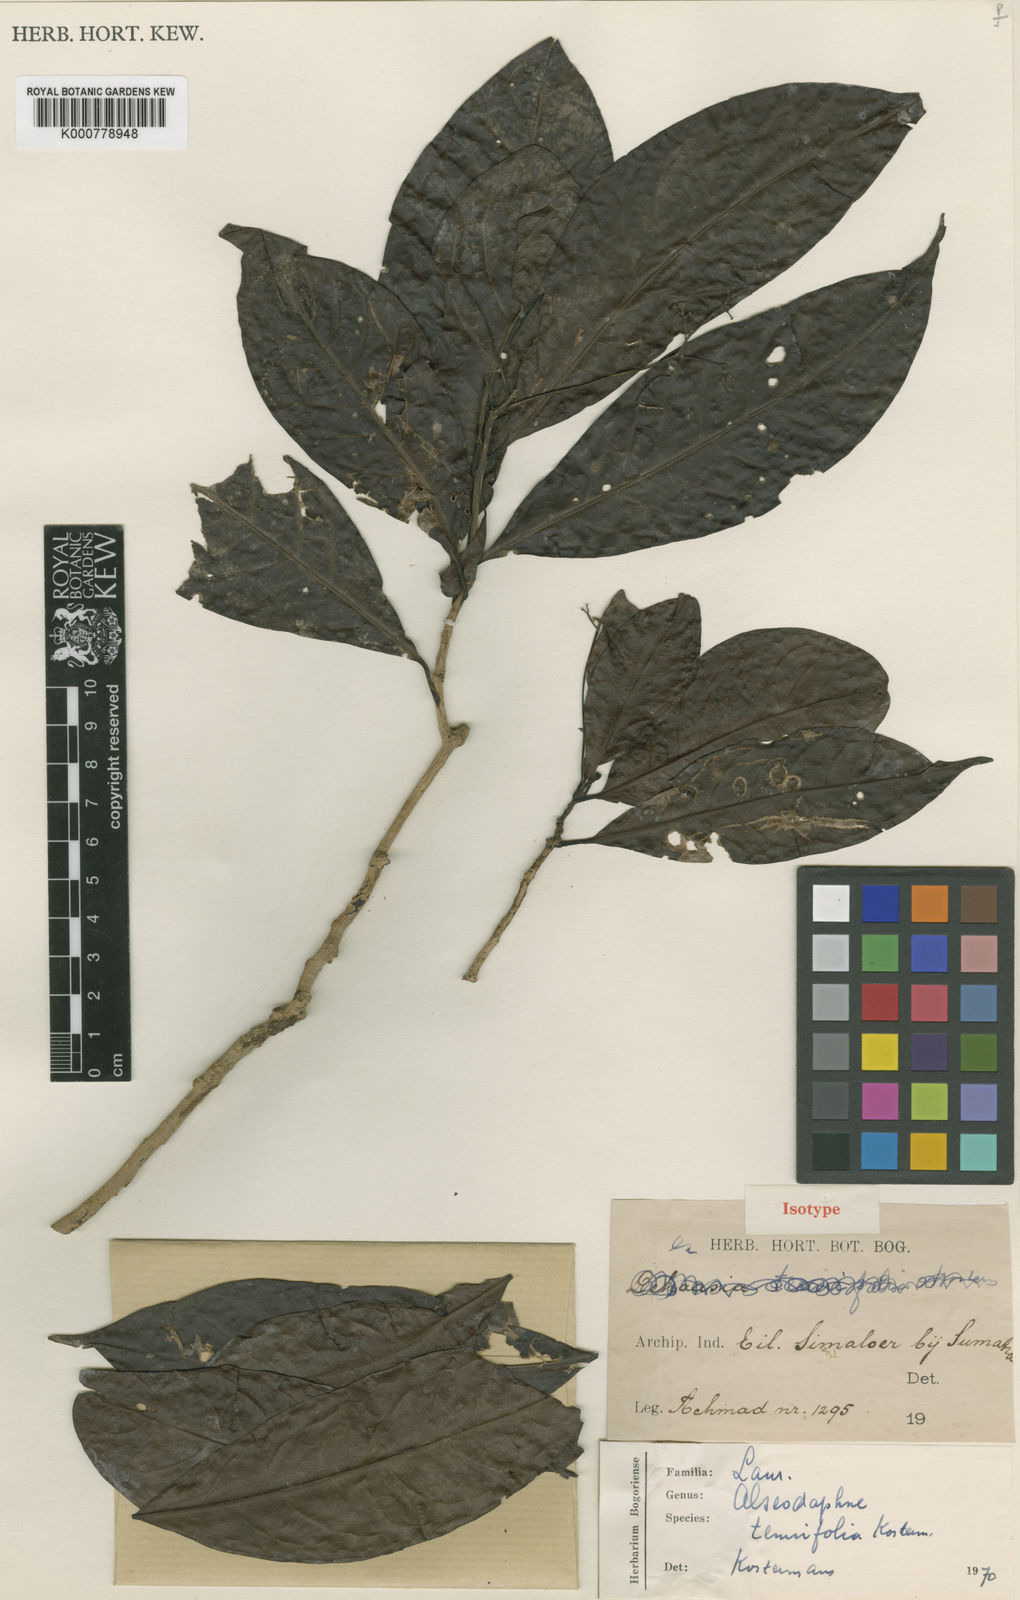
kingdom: Plantae
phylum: Tracheophyta
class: Magnoliopsida
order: Laurales
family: Lauraceae
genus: Alseodaphne
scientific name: Alseodaphne
